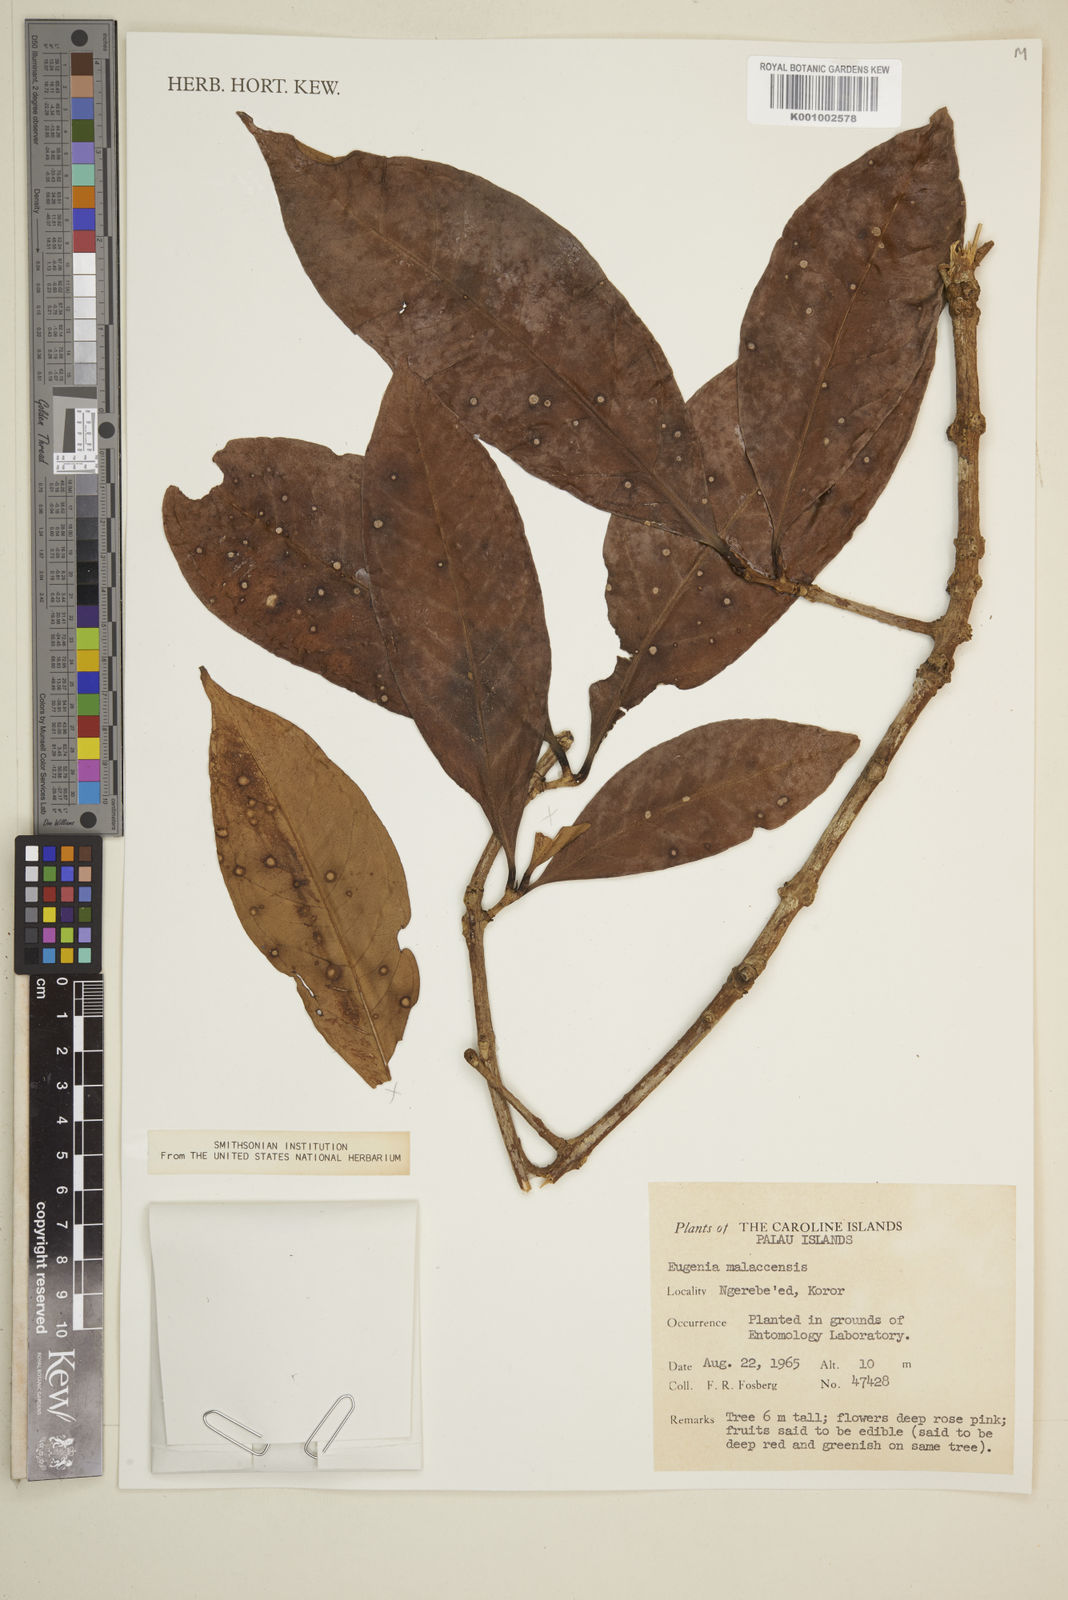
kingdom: Plantae
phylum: Tracheophyta
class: Magnoliopsida
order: Myrtales
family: Myrtaceae
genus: Syzygium
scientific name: Syzygium malaccense
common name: Malaysian apple
